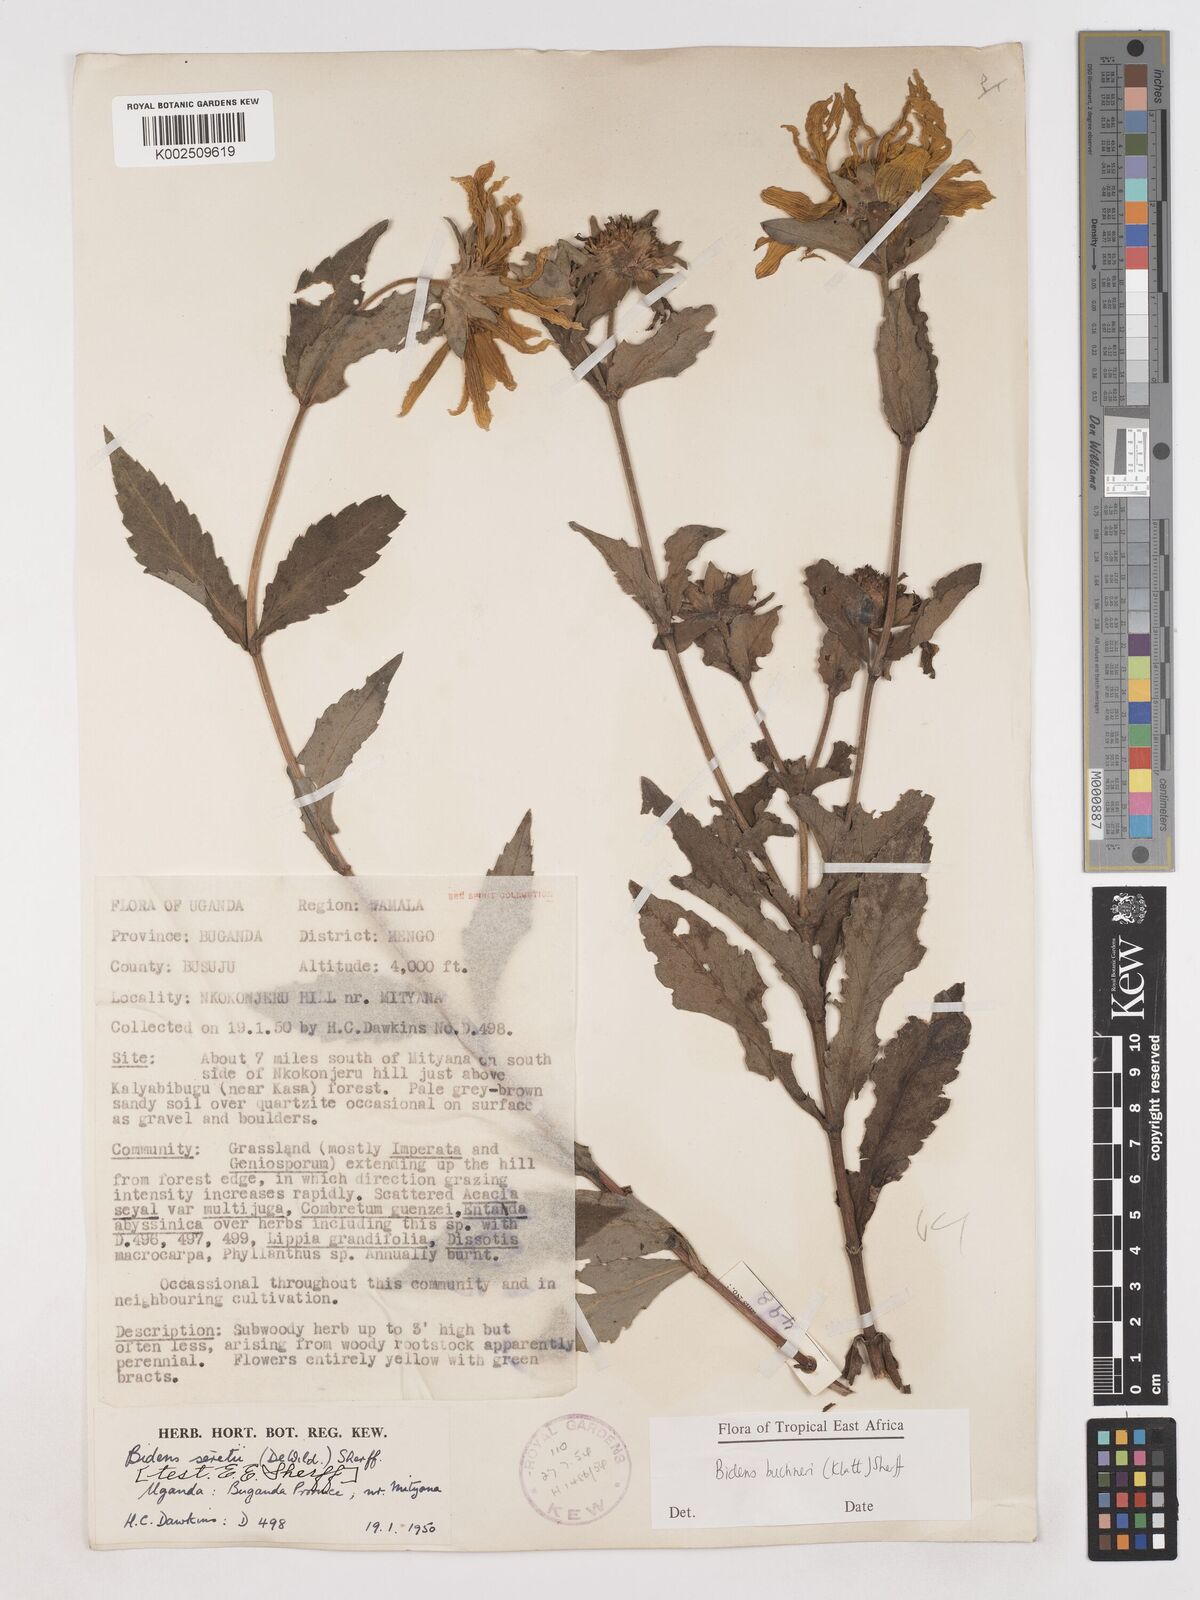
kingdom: Plantae
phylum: Tracheophyta
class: Magnoliopsida
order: Asterales
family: Asteraceae
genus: Bidens
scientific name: Bidens buchneri
